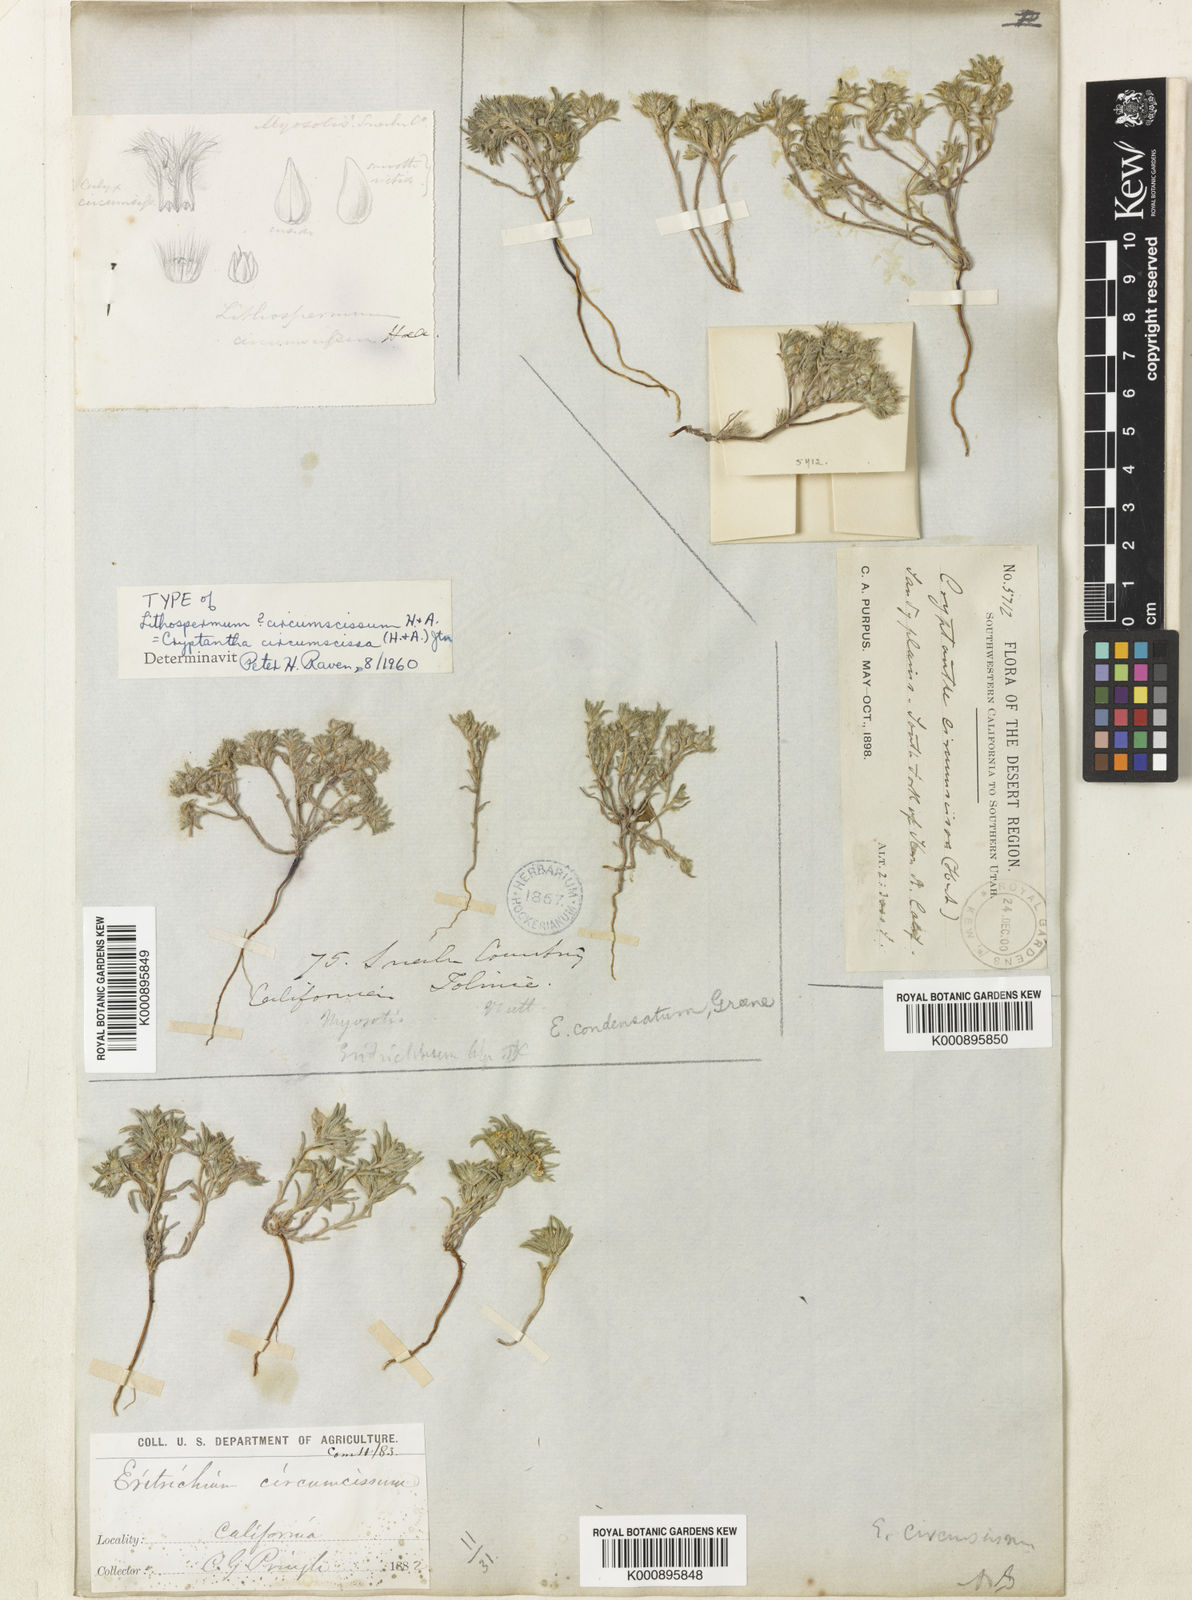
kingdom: Plantae
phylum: Tracheophyta
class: Magnoliopsida
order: Boraginales
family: Boraginaceae
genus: Greeneocharis
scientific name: Greeneocharis circumscissa
